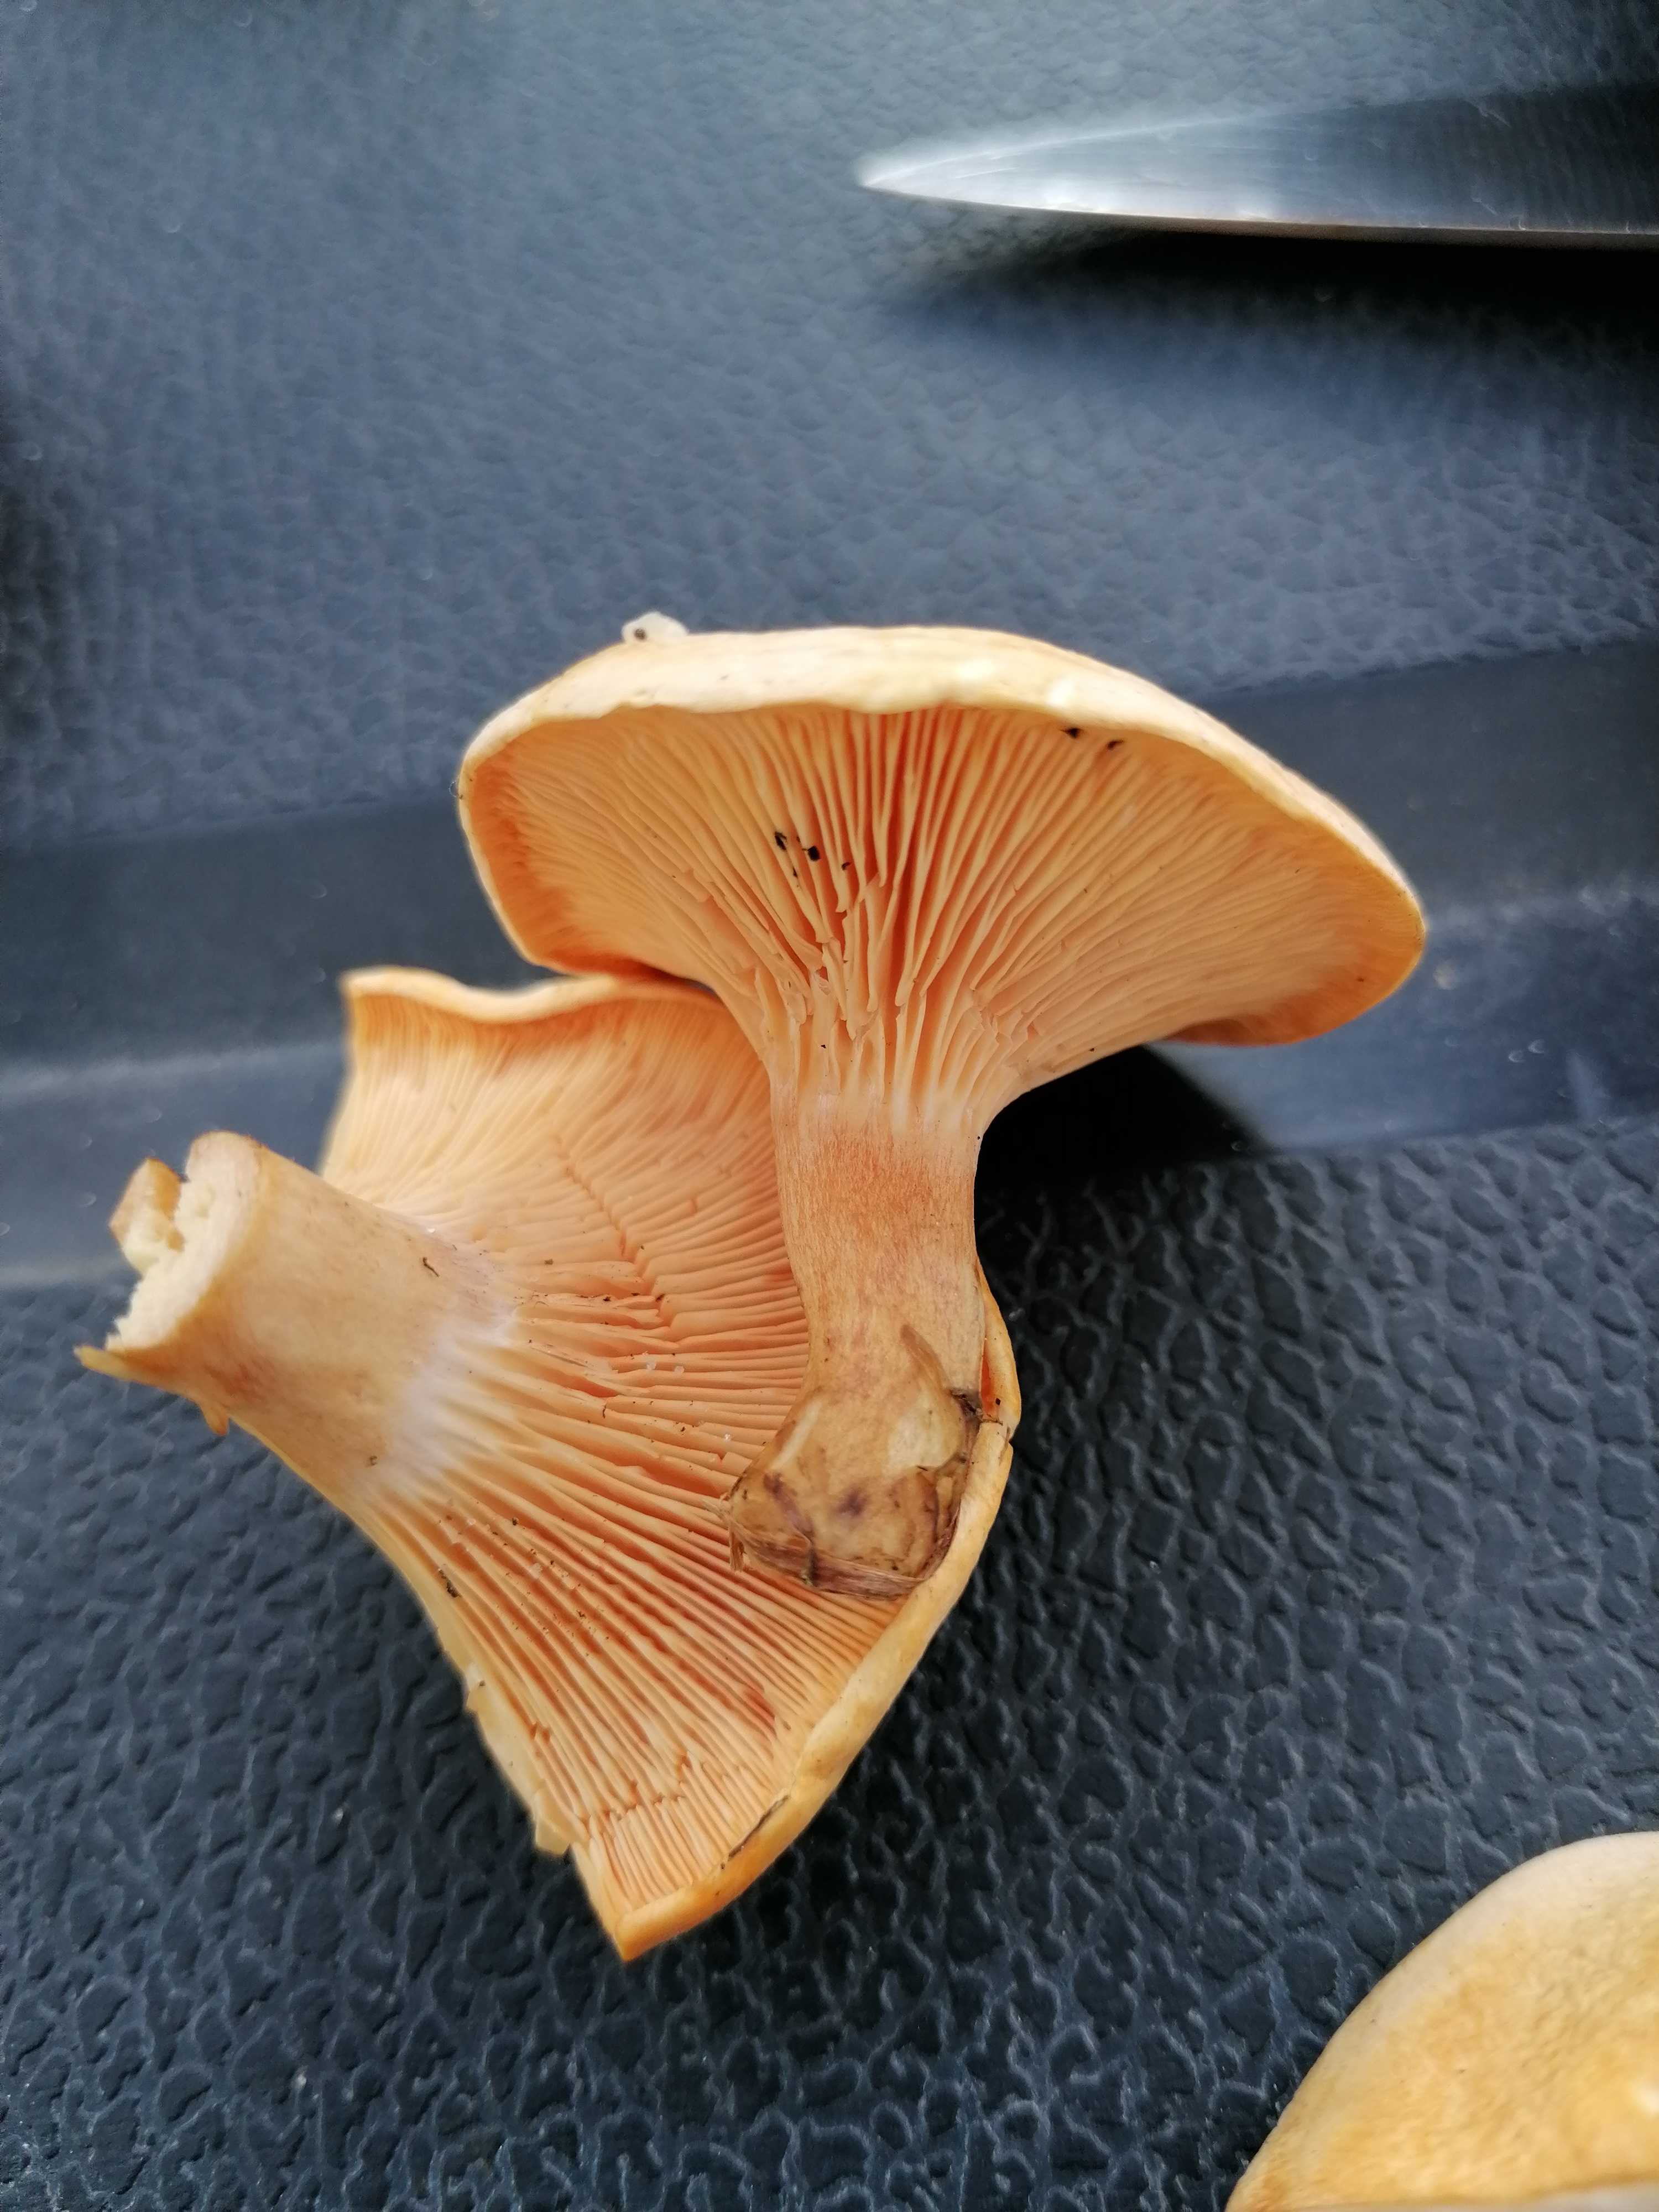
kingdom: Fungi
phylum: Basidiomycota
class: Agaricomycetes
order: Boletales
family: Hygrophoropsidaceae
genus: Hygrophoropsis
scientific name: Hygrophoropsis aurantiaca
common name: almindelig orangekantarel
